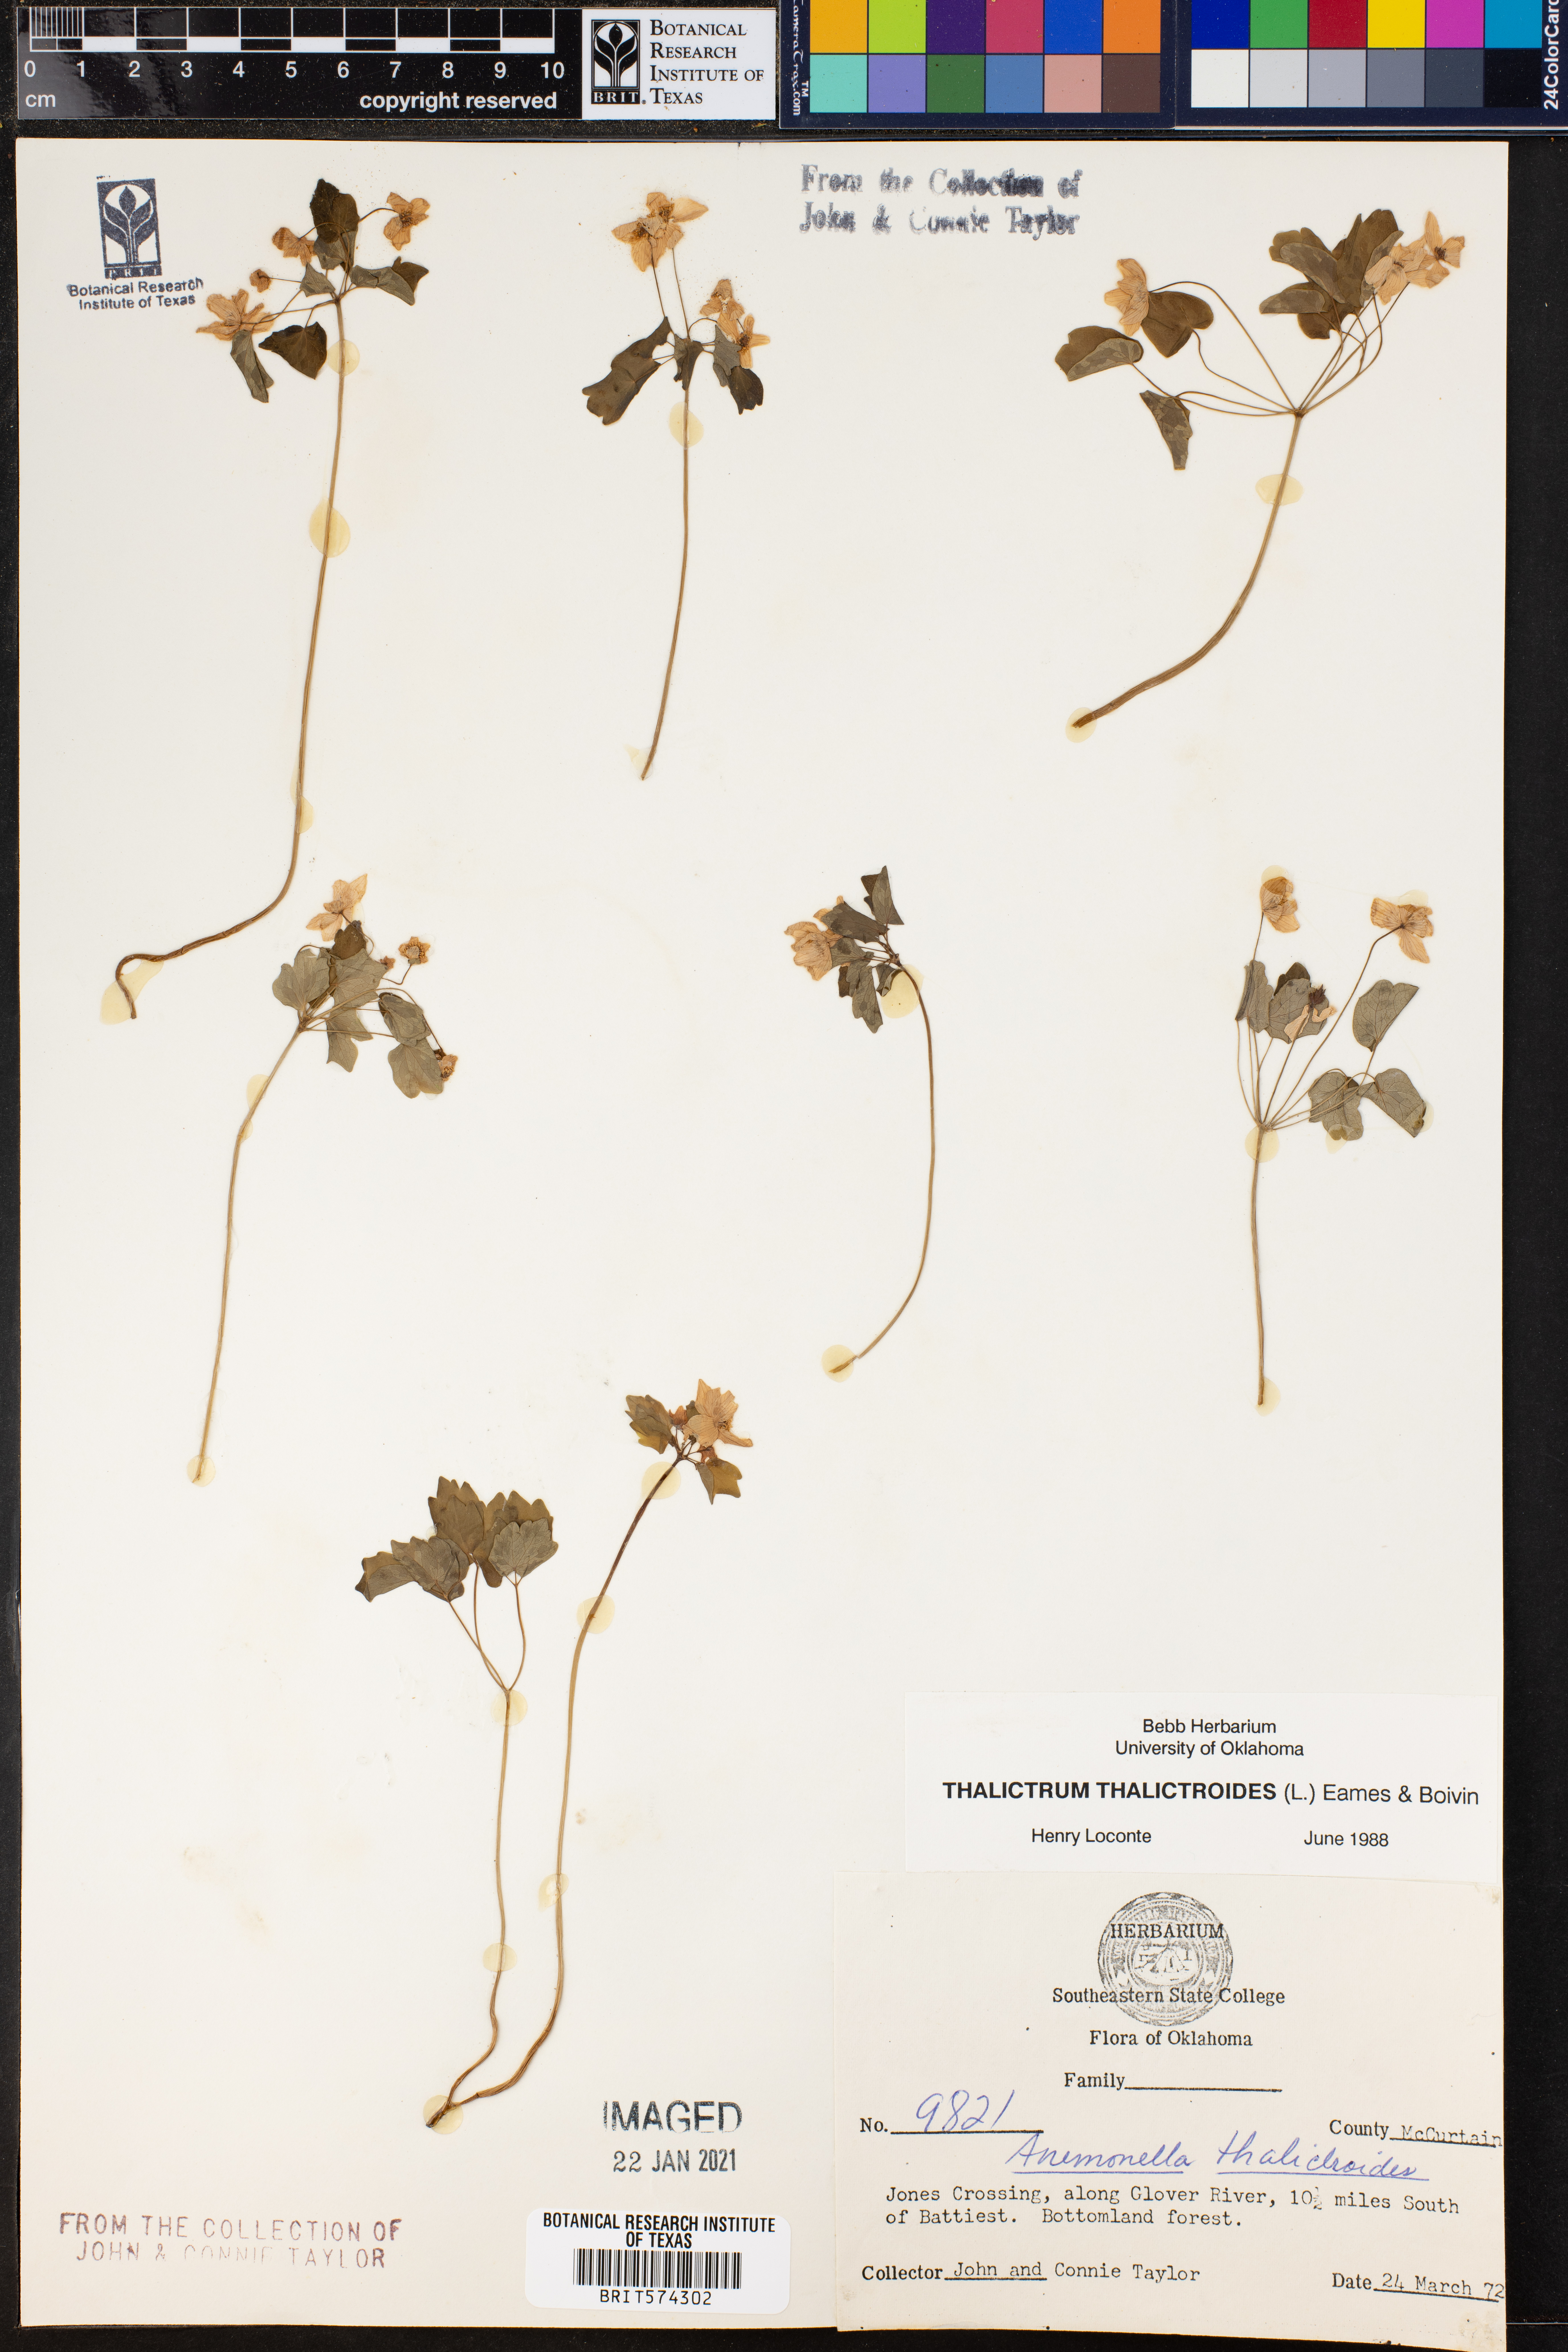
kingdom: Plantae
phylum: Tracheophyta
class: Magnoliopsida
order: Ranunculales
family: Ranunculaceae
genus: Thalictrum
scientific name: Thalictrum thalictroides
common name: Rue-anemone
